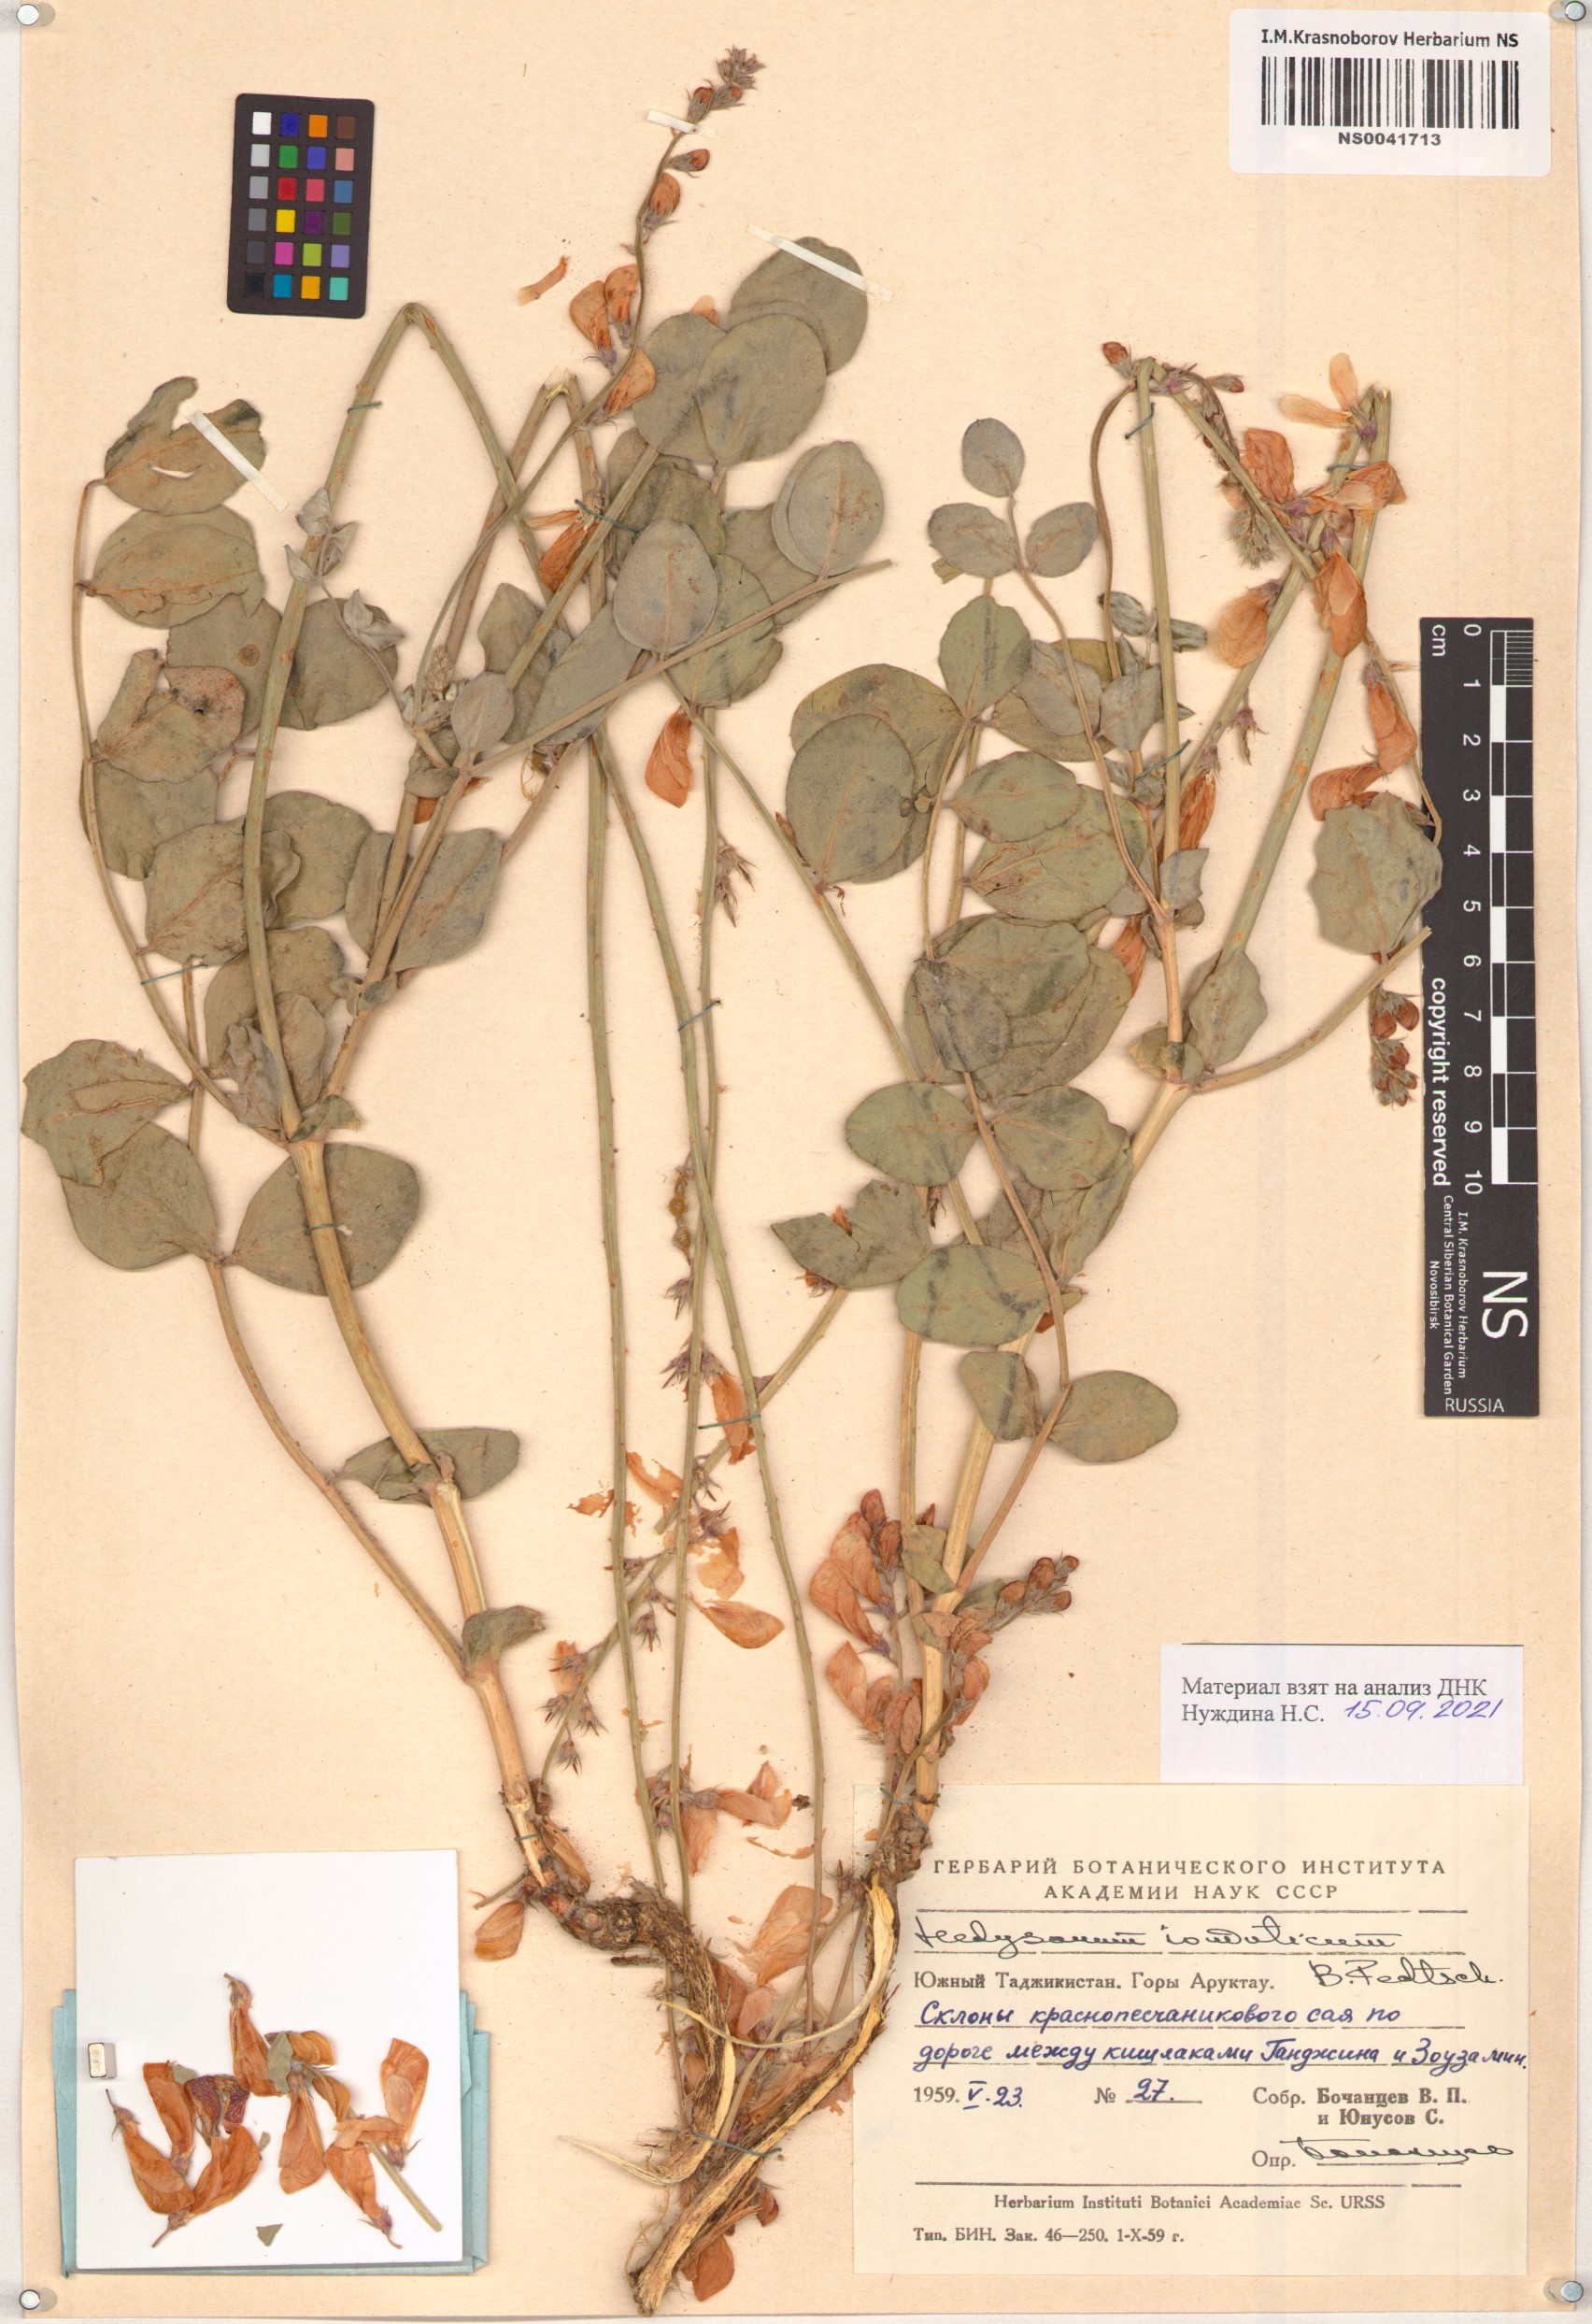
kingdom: Plantae
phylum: Tracheophyta
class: Magnoliopsida
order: Fabales
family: Fabaceae
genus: Hedysarum
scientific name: Hedysarum iomuticum
